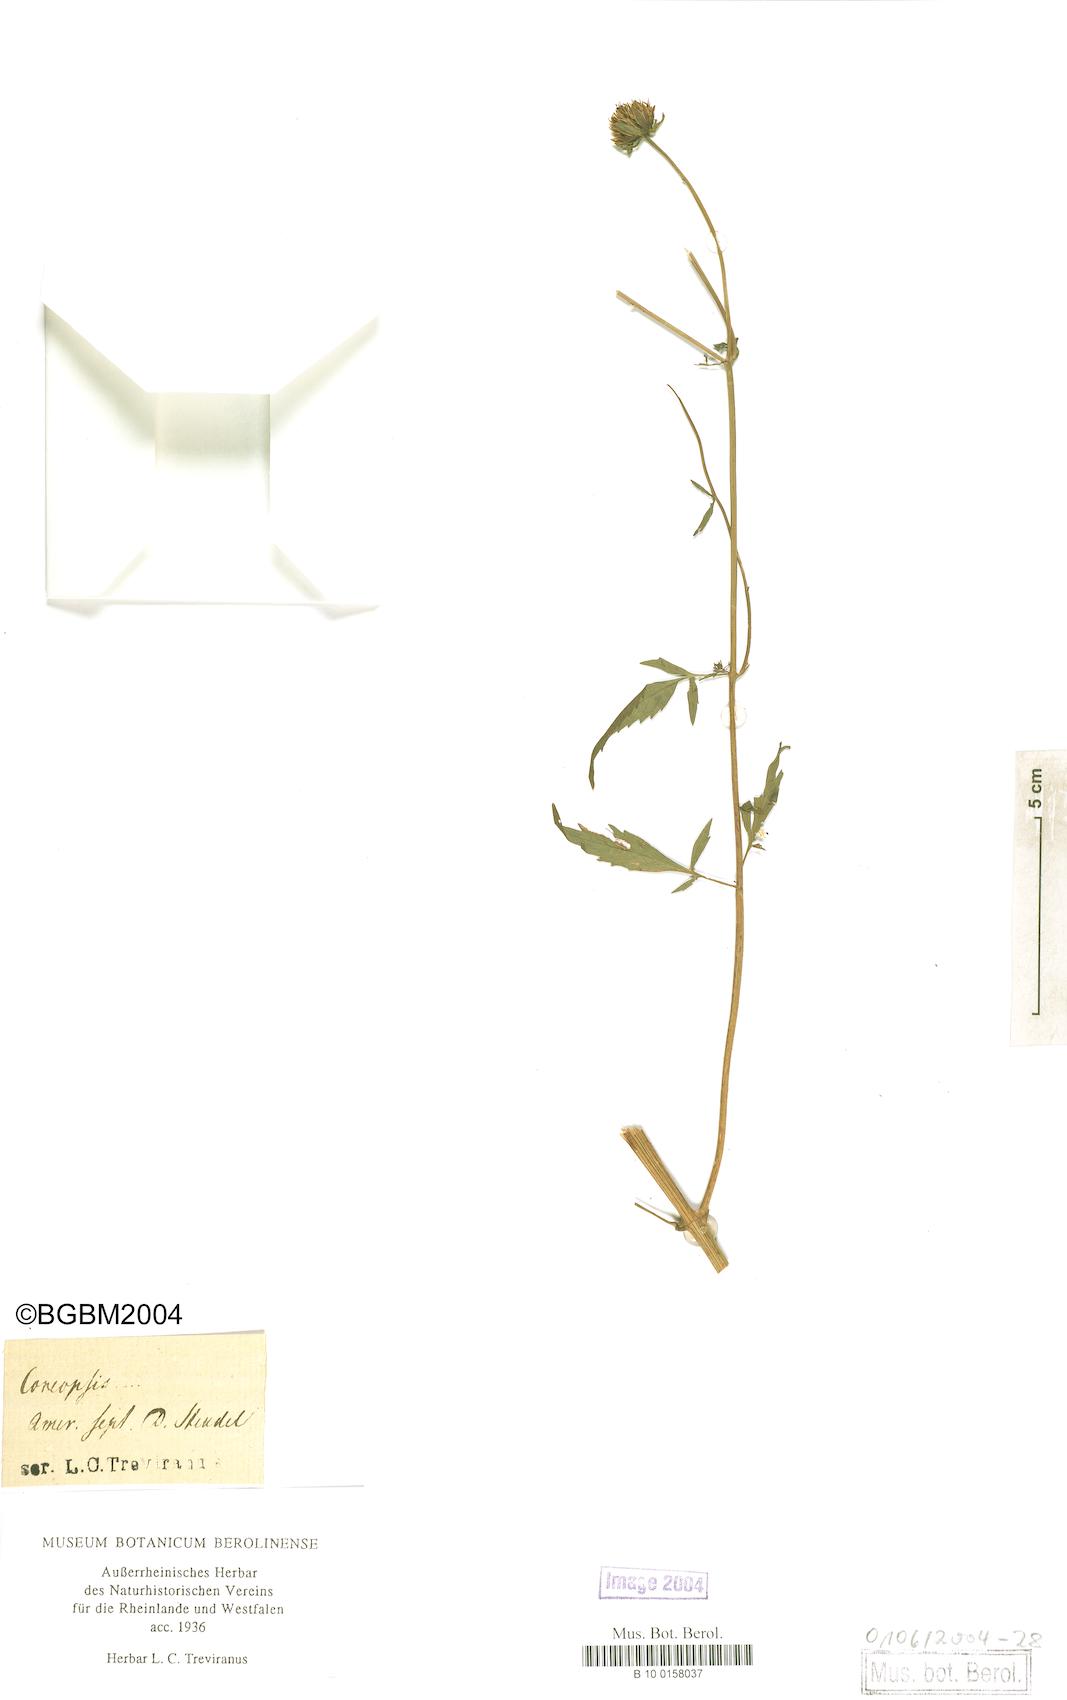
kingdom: Plantae
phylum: Tracheophyta
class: Magnoliopsida
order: Asterales
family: Asteraceae
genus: Coreopsis
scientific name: Coreopsis
